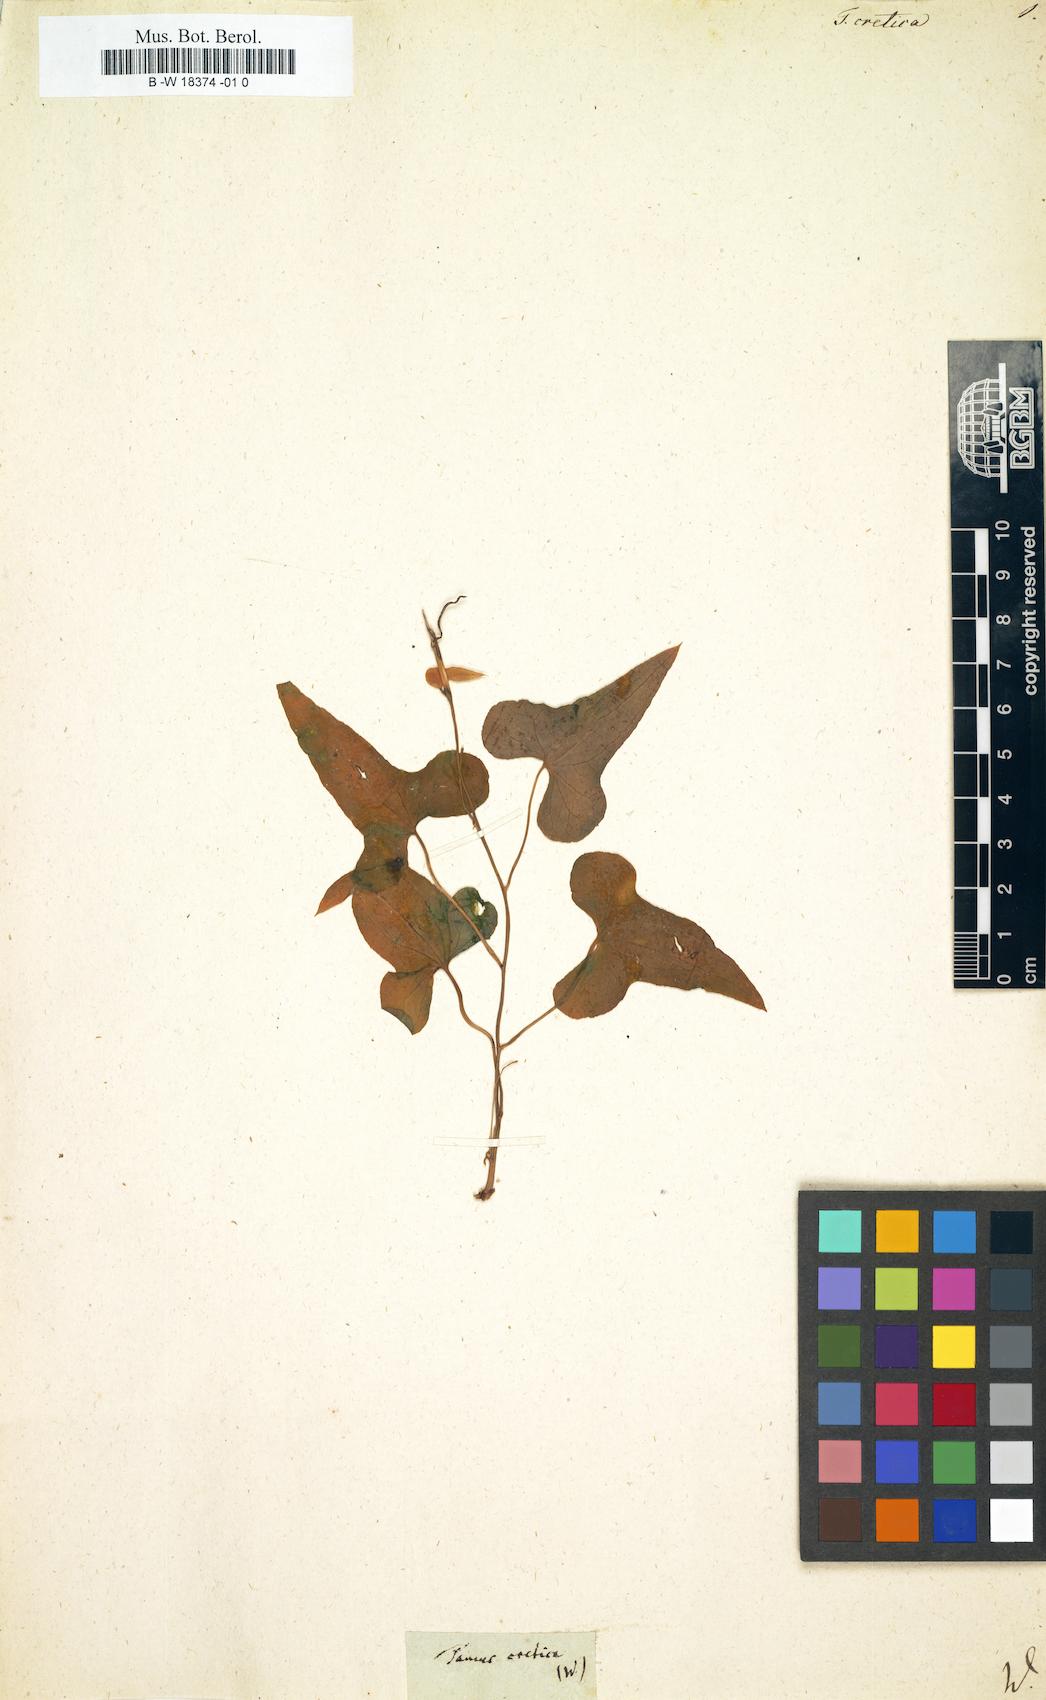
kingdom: Plantae
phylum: Tracheophyta
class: Liliopsida
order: Dioscoreales
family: Dioscoreaceae
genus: Dioscorea
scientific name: Dioscorea communis
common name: Black-bindweed
